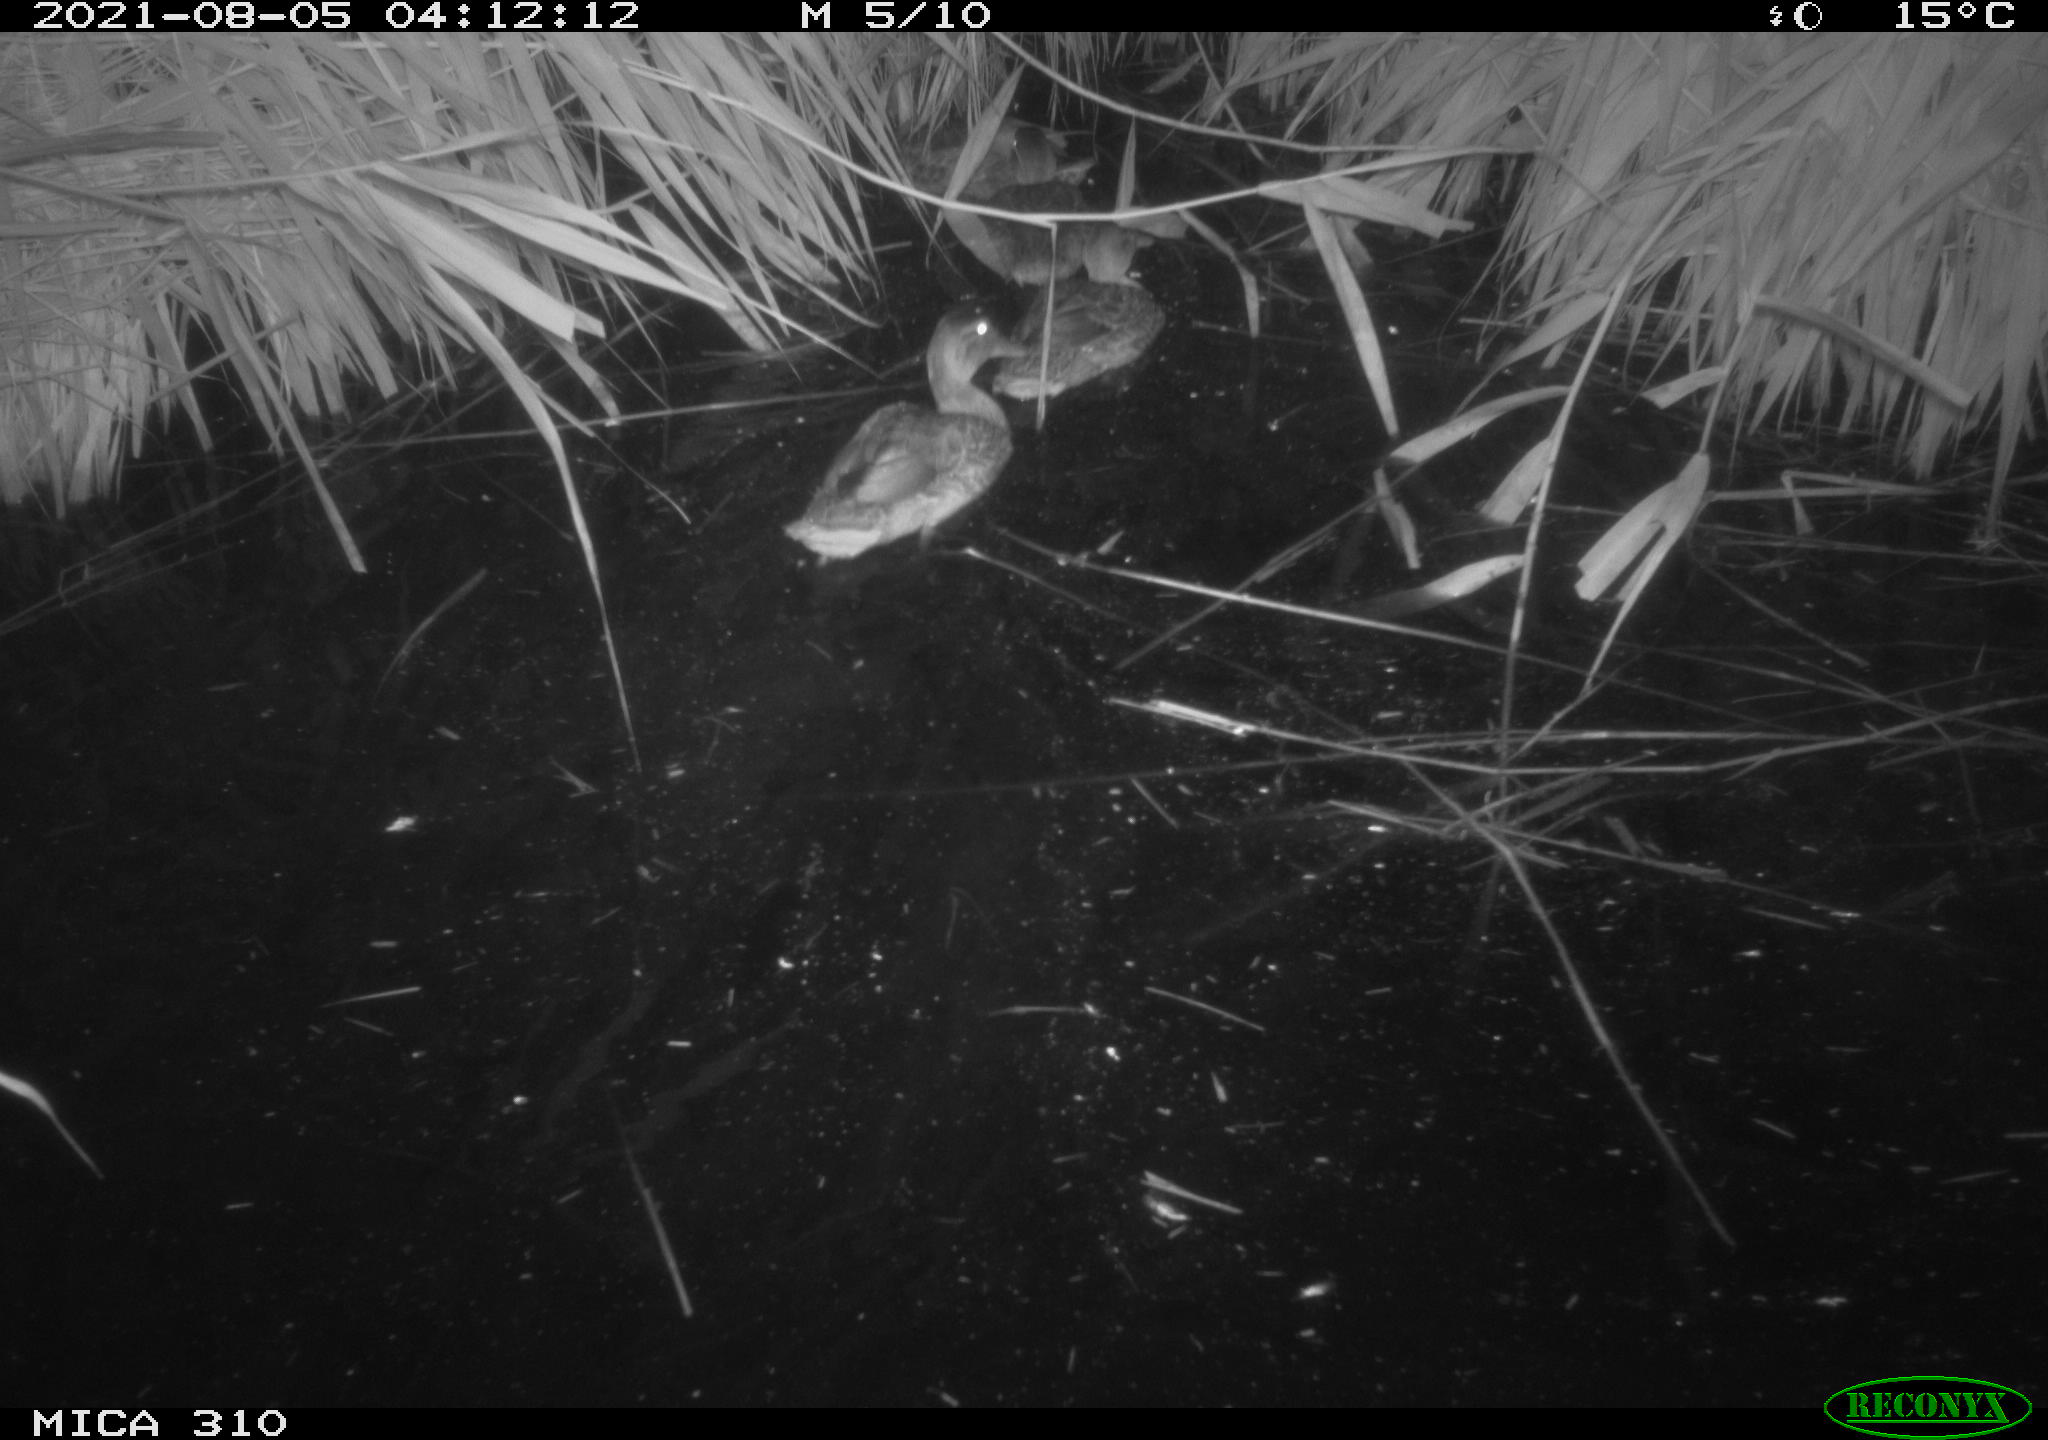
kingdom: Animalia
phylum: Chordata
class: Aves
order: Anseriformes
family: Anatidae
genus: Anas
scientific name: Anas platyrhynchos
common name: Mallard
